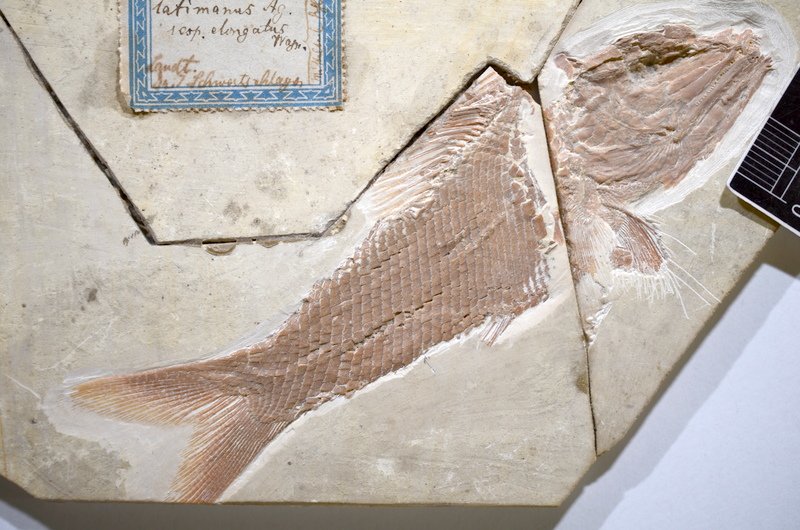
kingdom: Animalia
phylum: Chordata
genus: Altmuehlfuro
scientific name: Altmuehlfuro boomerang
